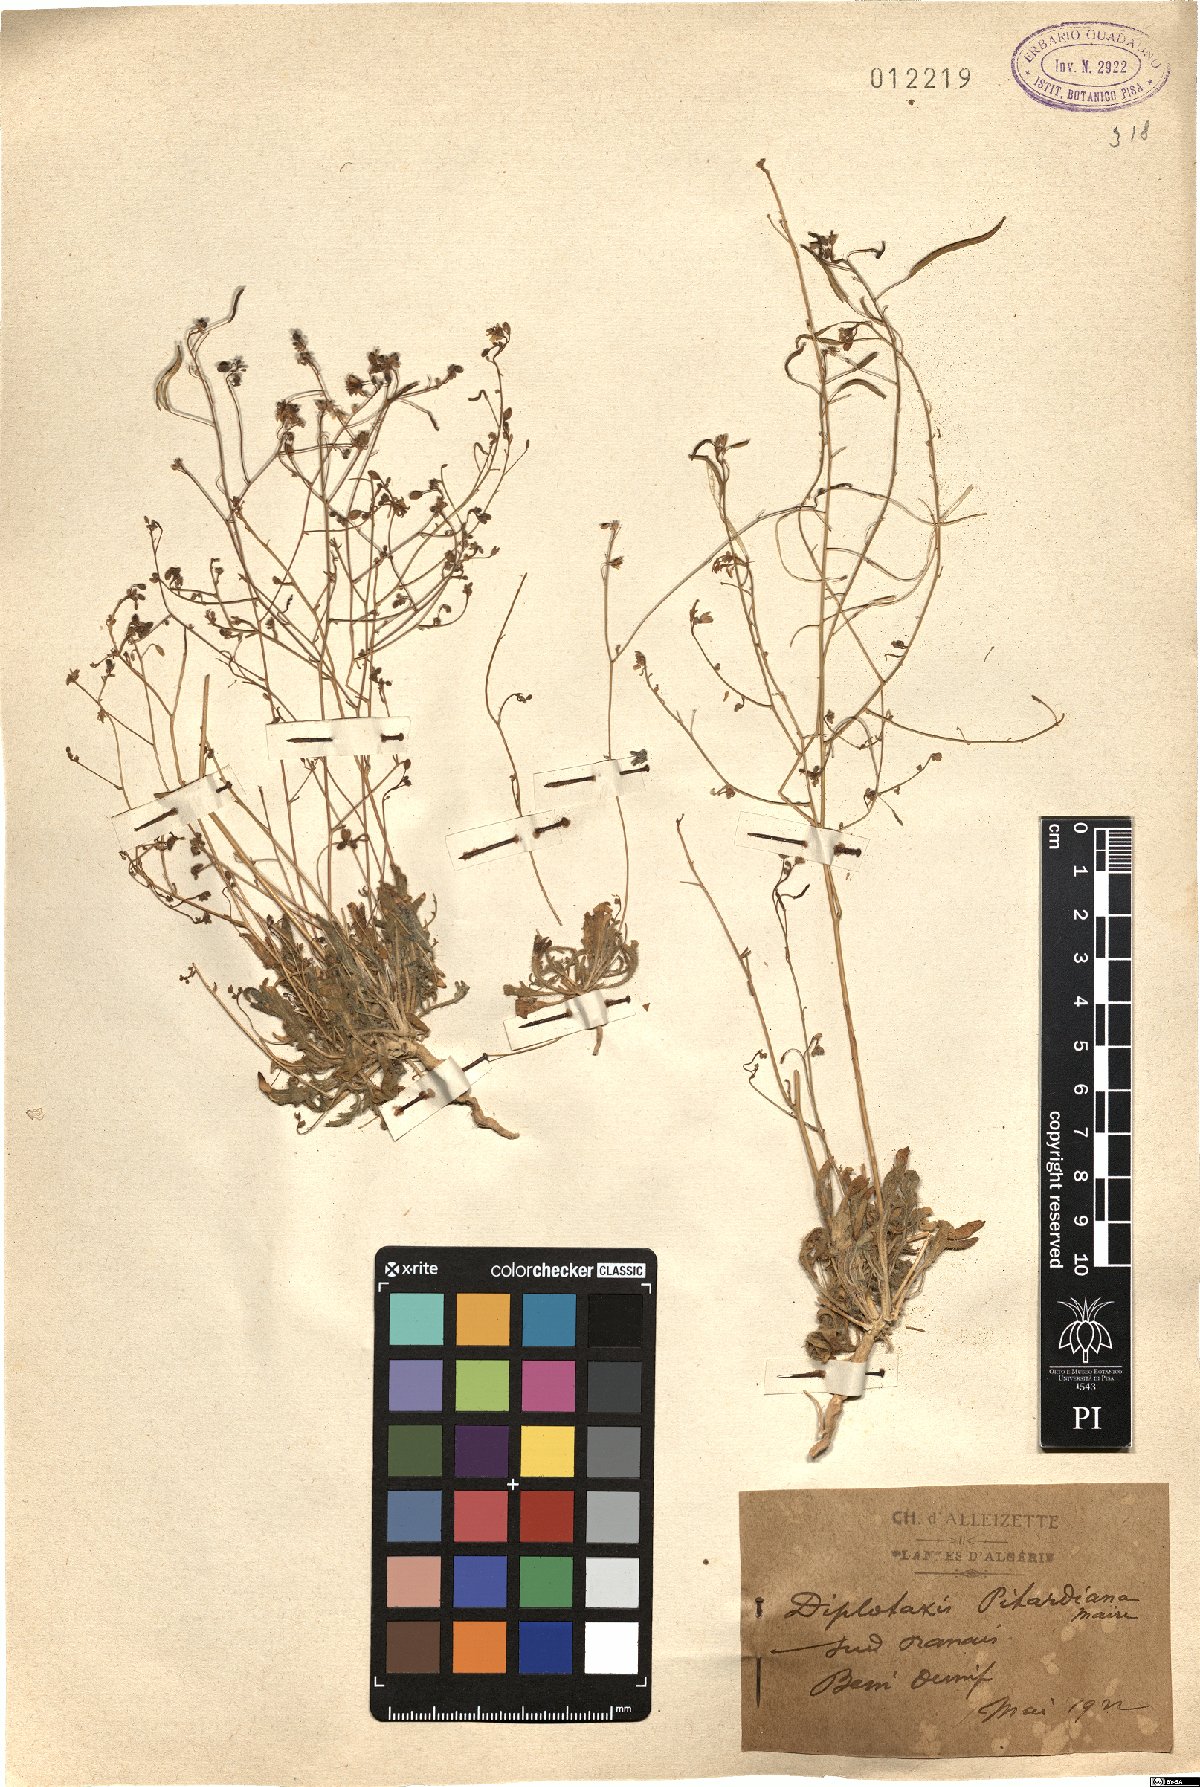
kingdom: Plantae
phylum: Tracheophyta
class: Magnoliopsida
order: Brassicales
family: Brassicaceae
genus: Diplotaxis
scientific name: Diplotaxis pitardiana
